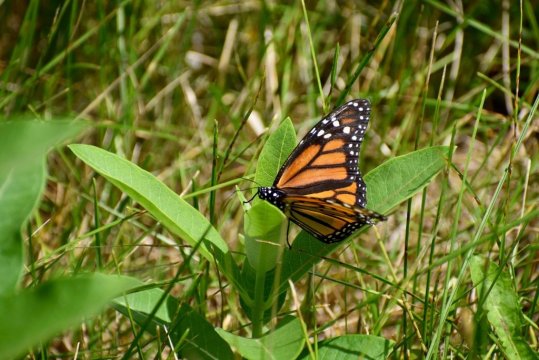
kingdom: Animalia
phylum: Arthropoda
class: Insecta
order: Lepidoptera
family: Nymphalidae
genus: Danaus
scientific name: Danaus plexippus
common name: Monarch
